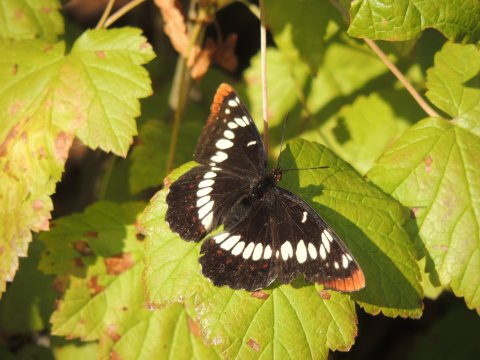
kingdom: Animalia
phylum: Arthropoda
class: Insecta
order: Lepidoptera
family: Nymphalidae
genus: Limenitis
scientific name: Limenitis lorquini
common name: Lorquin's Admiral
